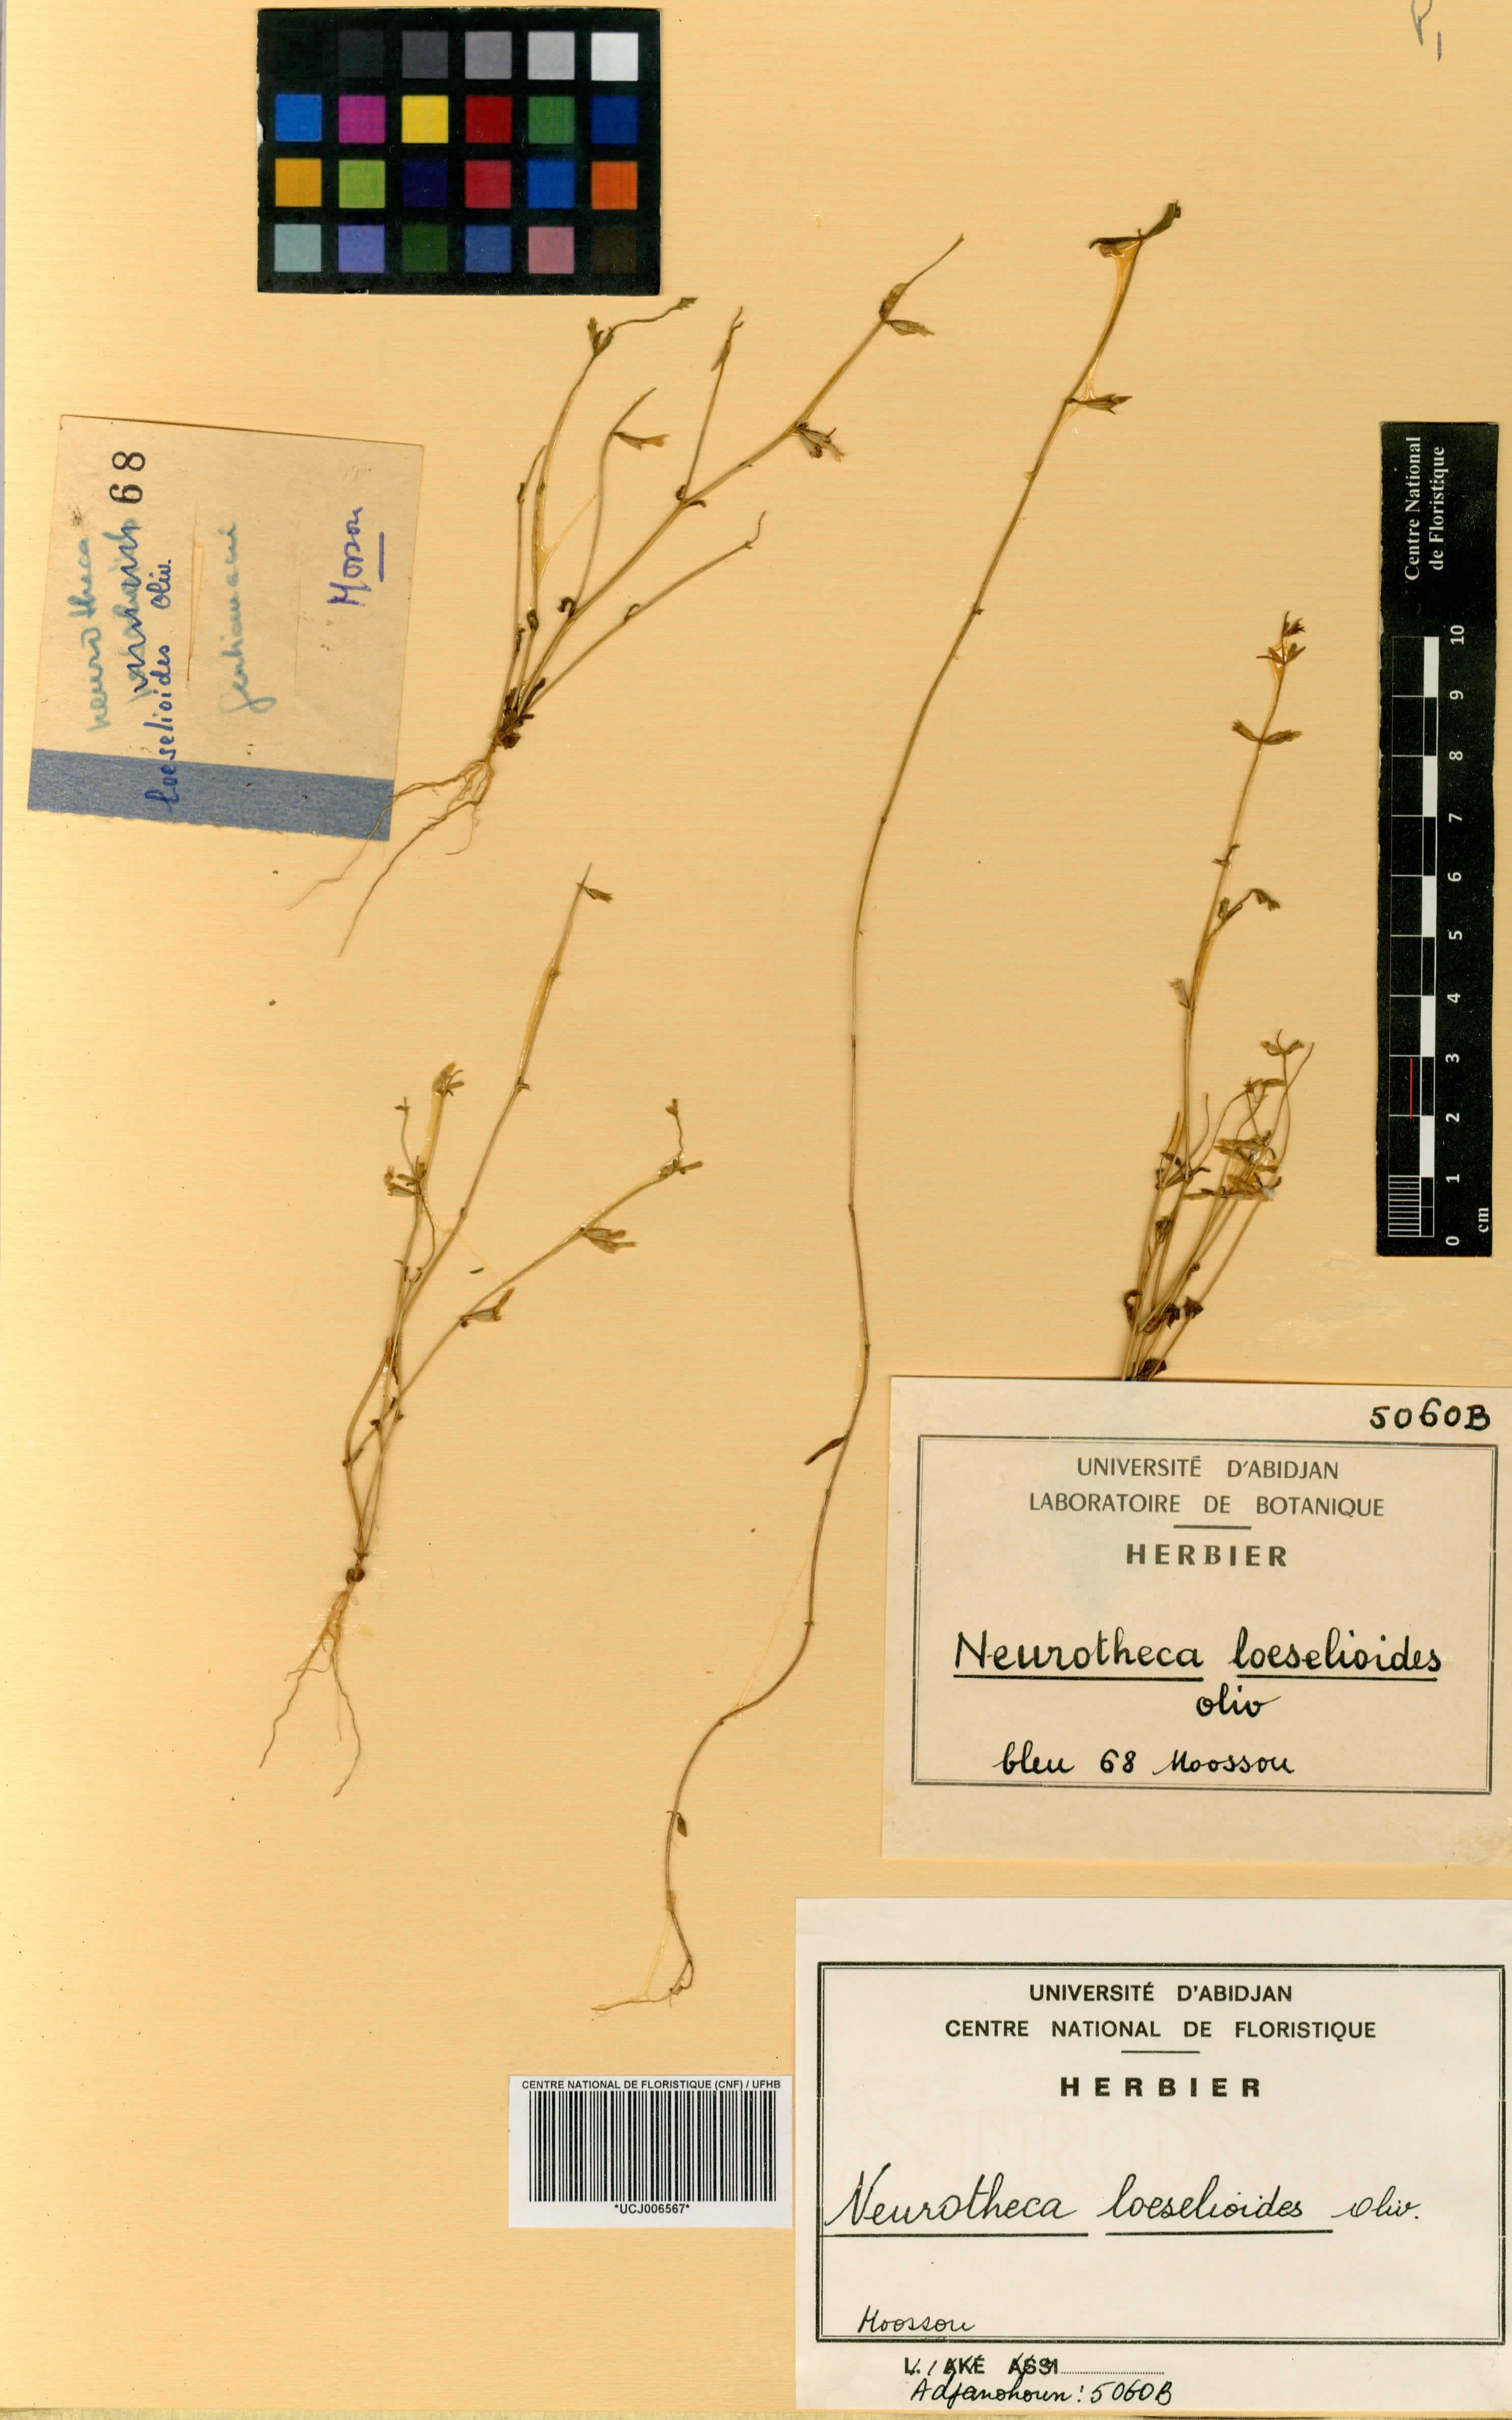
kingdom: Plantae
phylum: Tracheophyta
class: Magnoliopsida
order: Gentianales
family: Gentianaceae
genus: Neurotheca
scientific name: Neurotheca loeselioides
